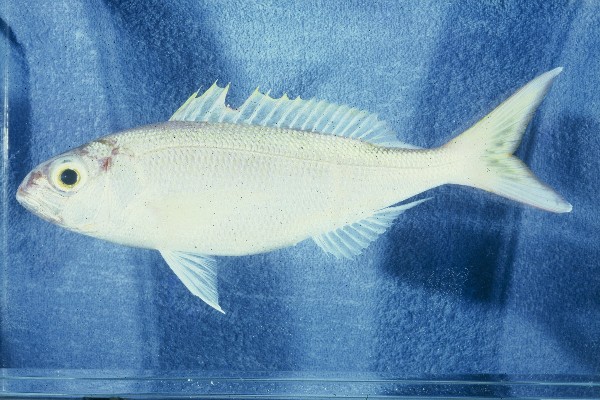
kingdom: Animalia
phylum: Chordata
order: Perciformes
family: Lutjanidae
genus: Pristipomoides
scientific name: Pristipomoides filamentosus
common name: Bluespot jobfish
